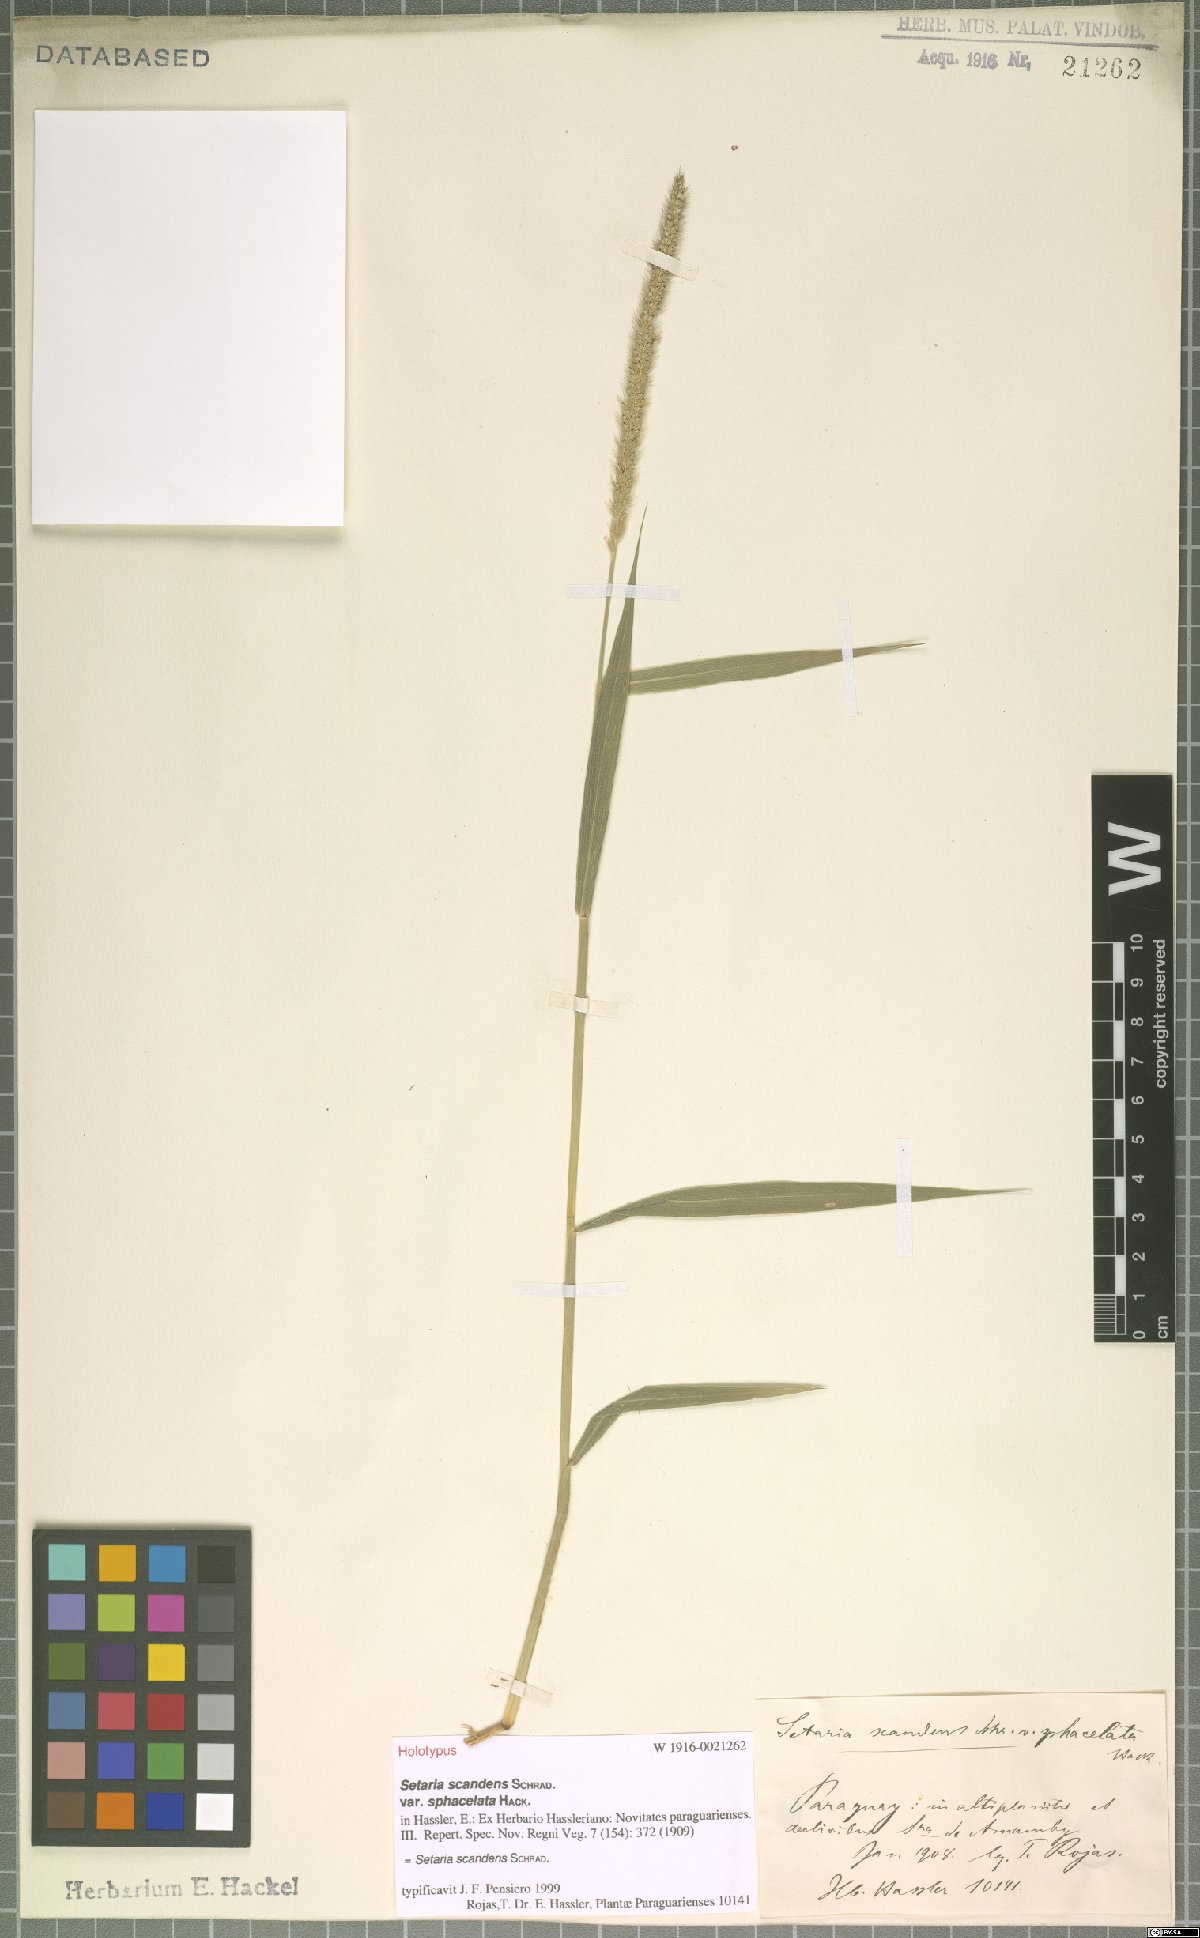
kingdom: Plantae
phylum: Tracheophyta
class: Liliopsida
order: Poales
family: Poaceae
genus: Setaria
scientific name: Setaria scandens
